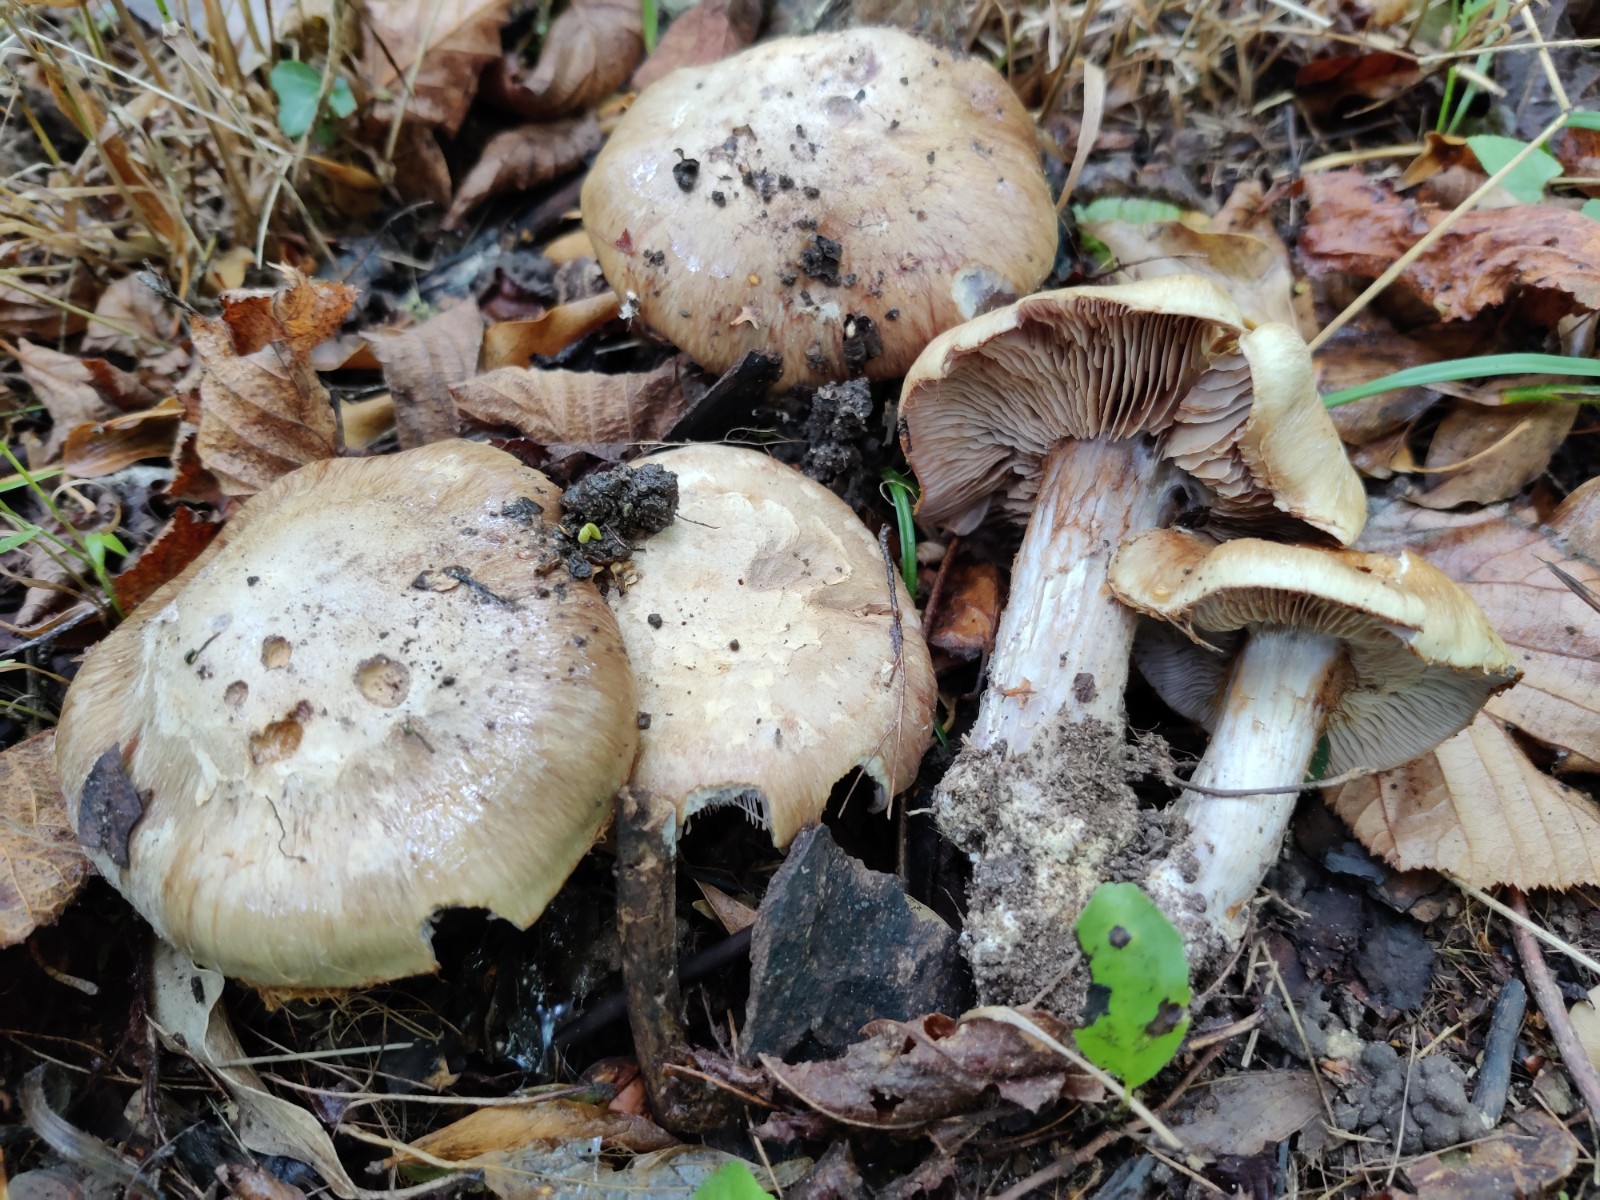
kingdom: Fungi
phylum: Basidiomycota
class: Agaricomycetes
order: Agaricales
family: Cortinariaceae
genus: Phlegmacium
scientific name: Phlegmacium
